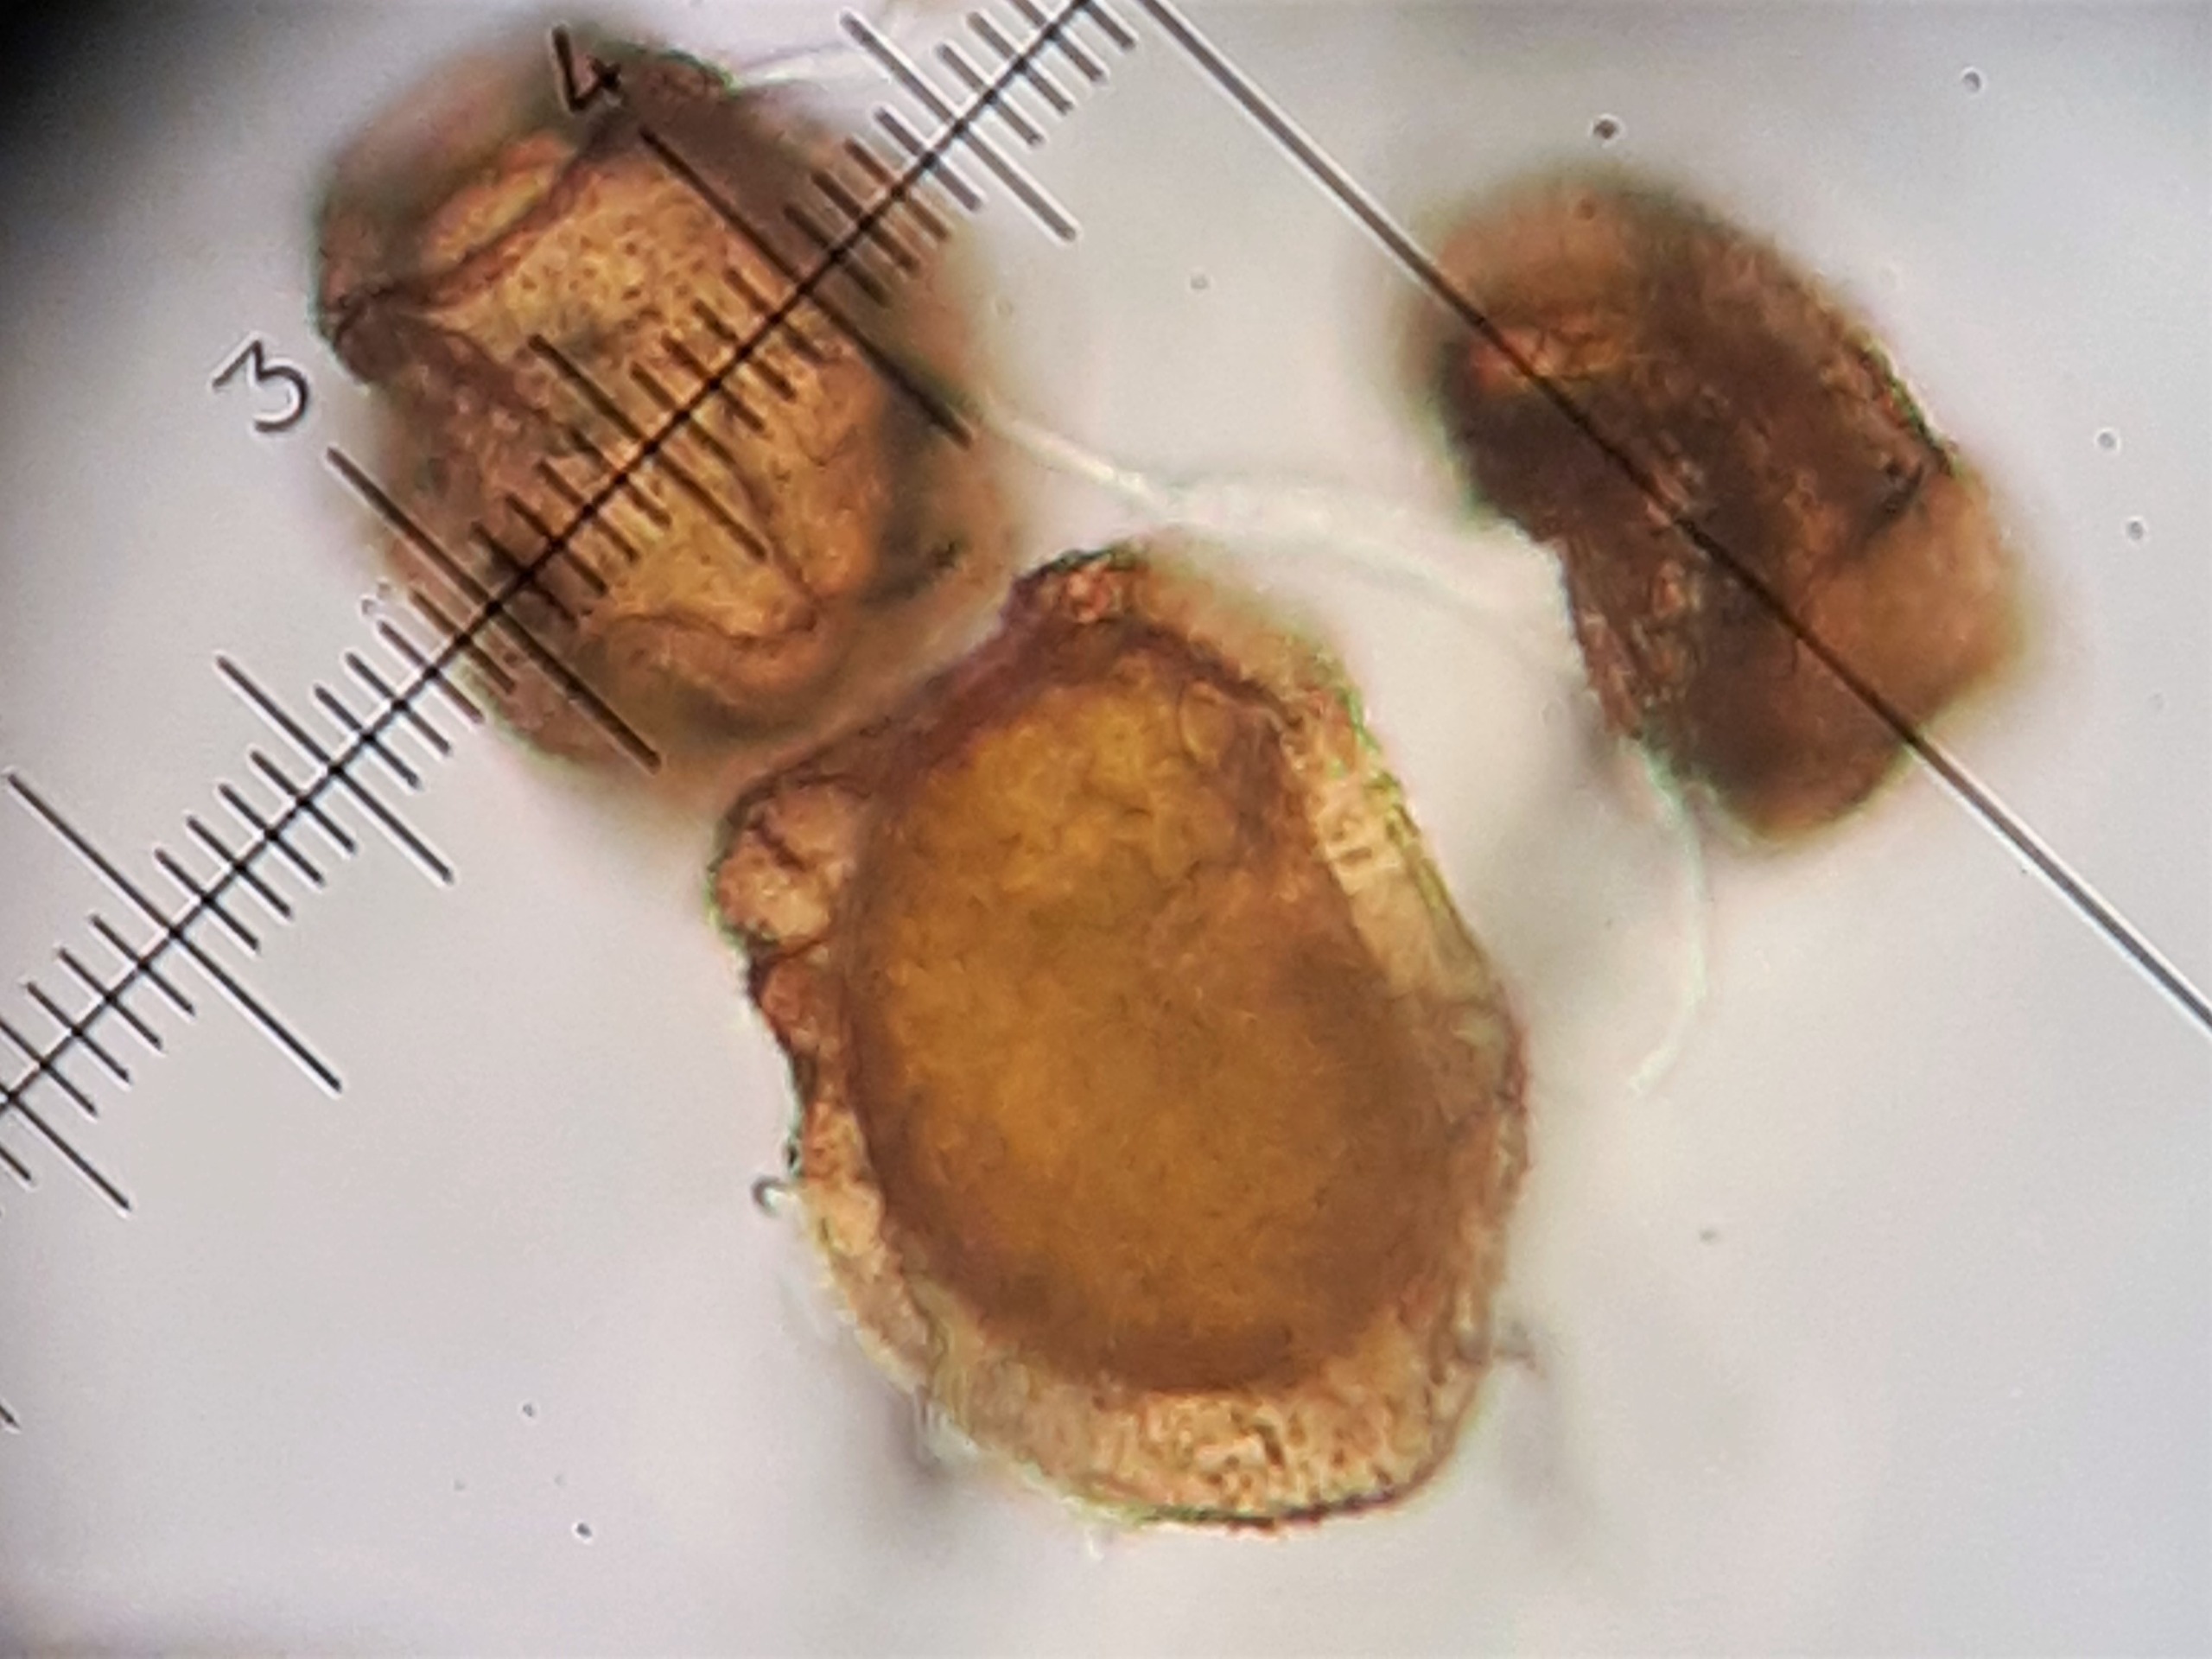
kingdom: Plantae
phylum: Tracheophyta
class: Polypodiopsida
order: Polypodiales
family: Dryopteridaceae
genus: Dryopteris
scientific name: Dryopteris expansa
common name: Finbladet mangeløv
